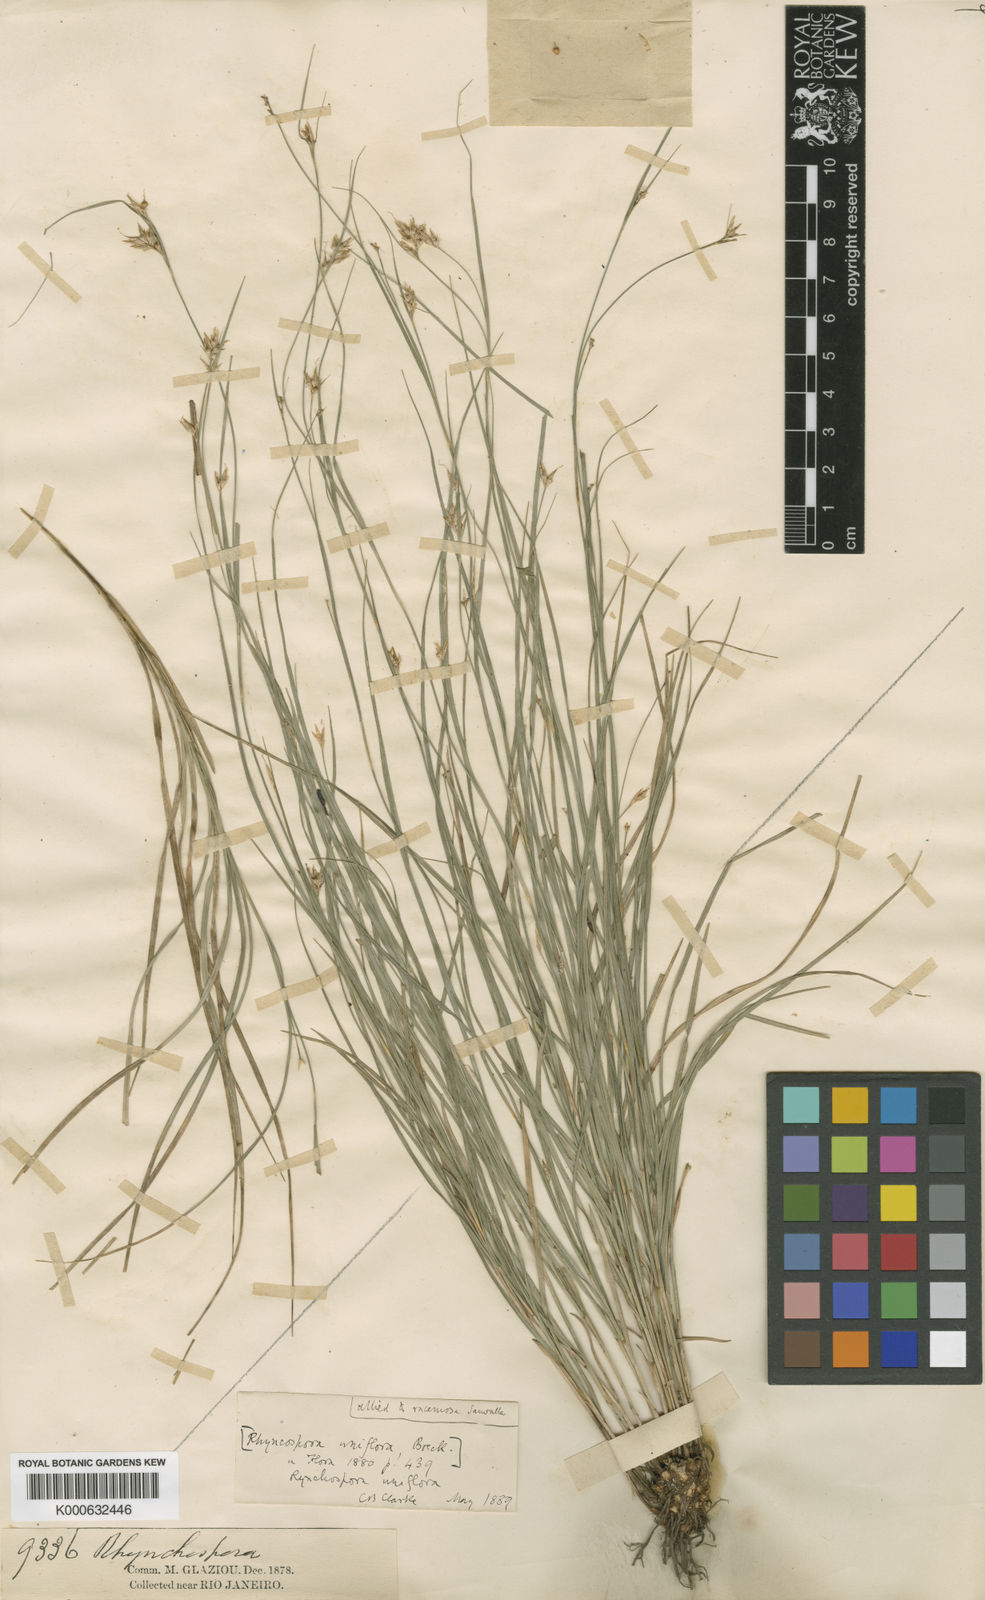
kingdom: Plantae
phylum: Tracheophyta
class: Liliopsida
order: Poales
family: Cyperaceae
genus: Rhynchospora
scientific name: Rhynchospora biflora
